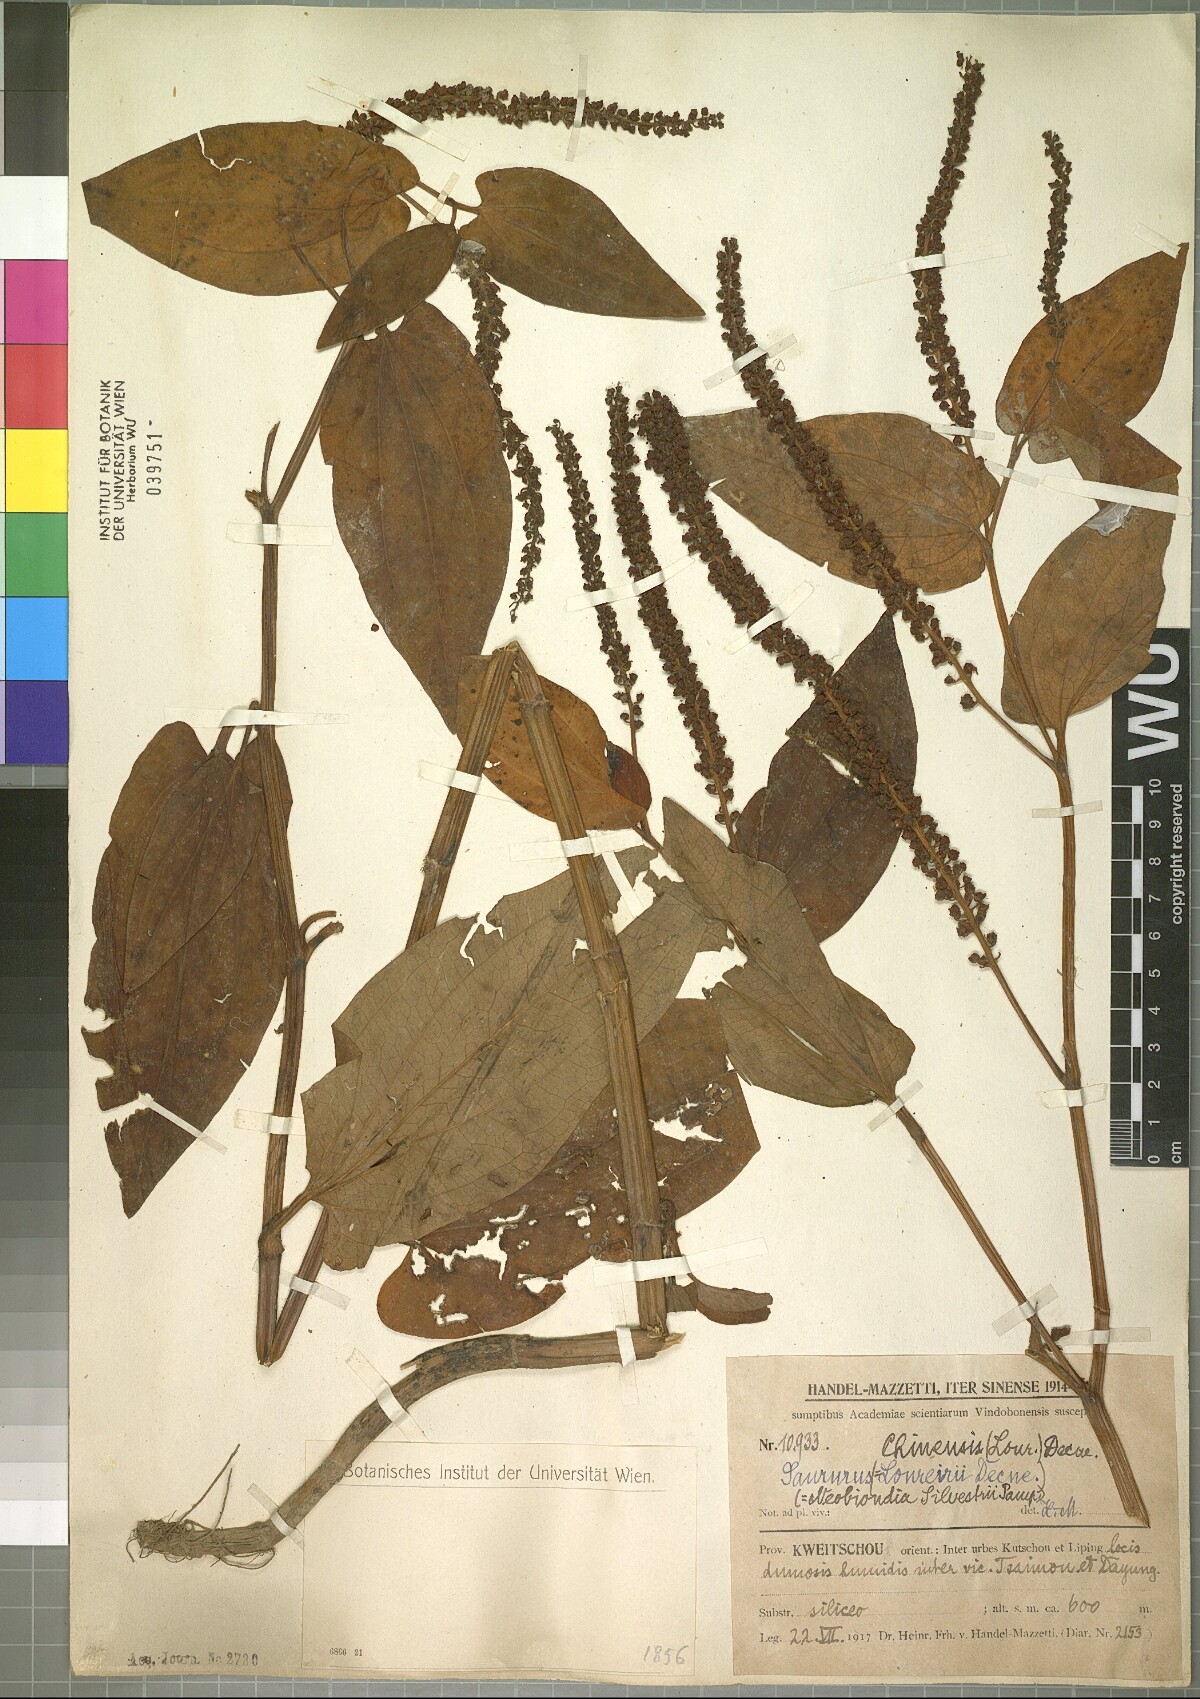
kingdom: Plantae
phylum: Tracheophyta
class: Magnoliopsida
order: Piperales
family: Saururaceae
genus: Saururus
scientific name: Saururus chinensis
